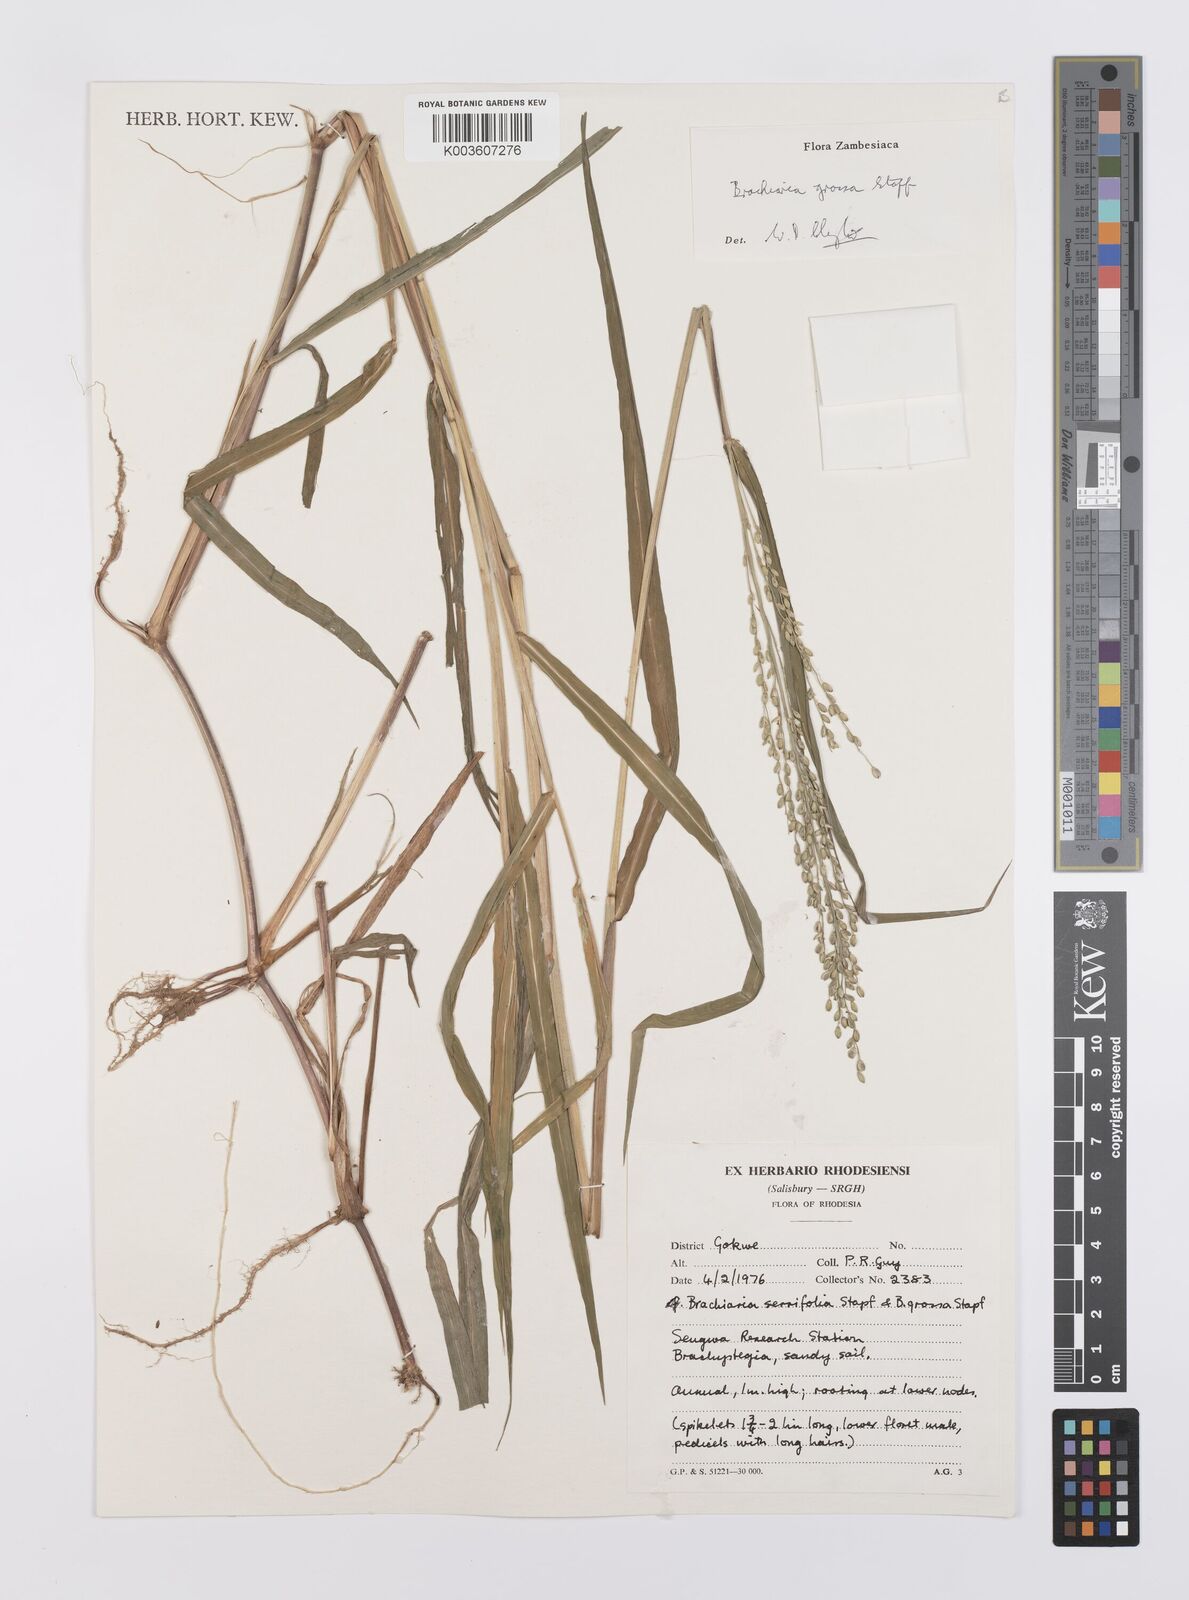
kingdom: Plantae
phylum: Tracheophyta
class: Liliopsida
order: Poales
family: Poaceae
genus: Urochloa
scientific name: Urochloa Brachiaria grossa
